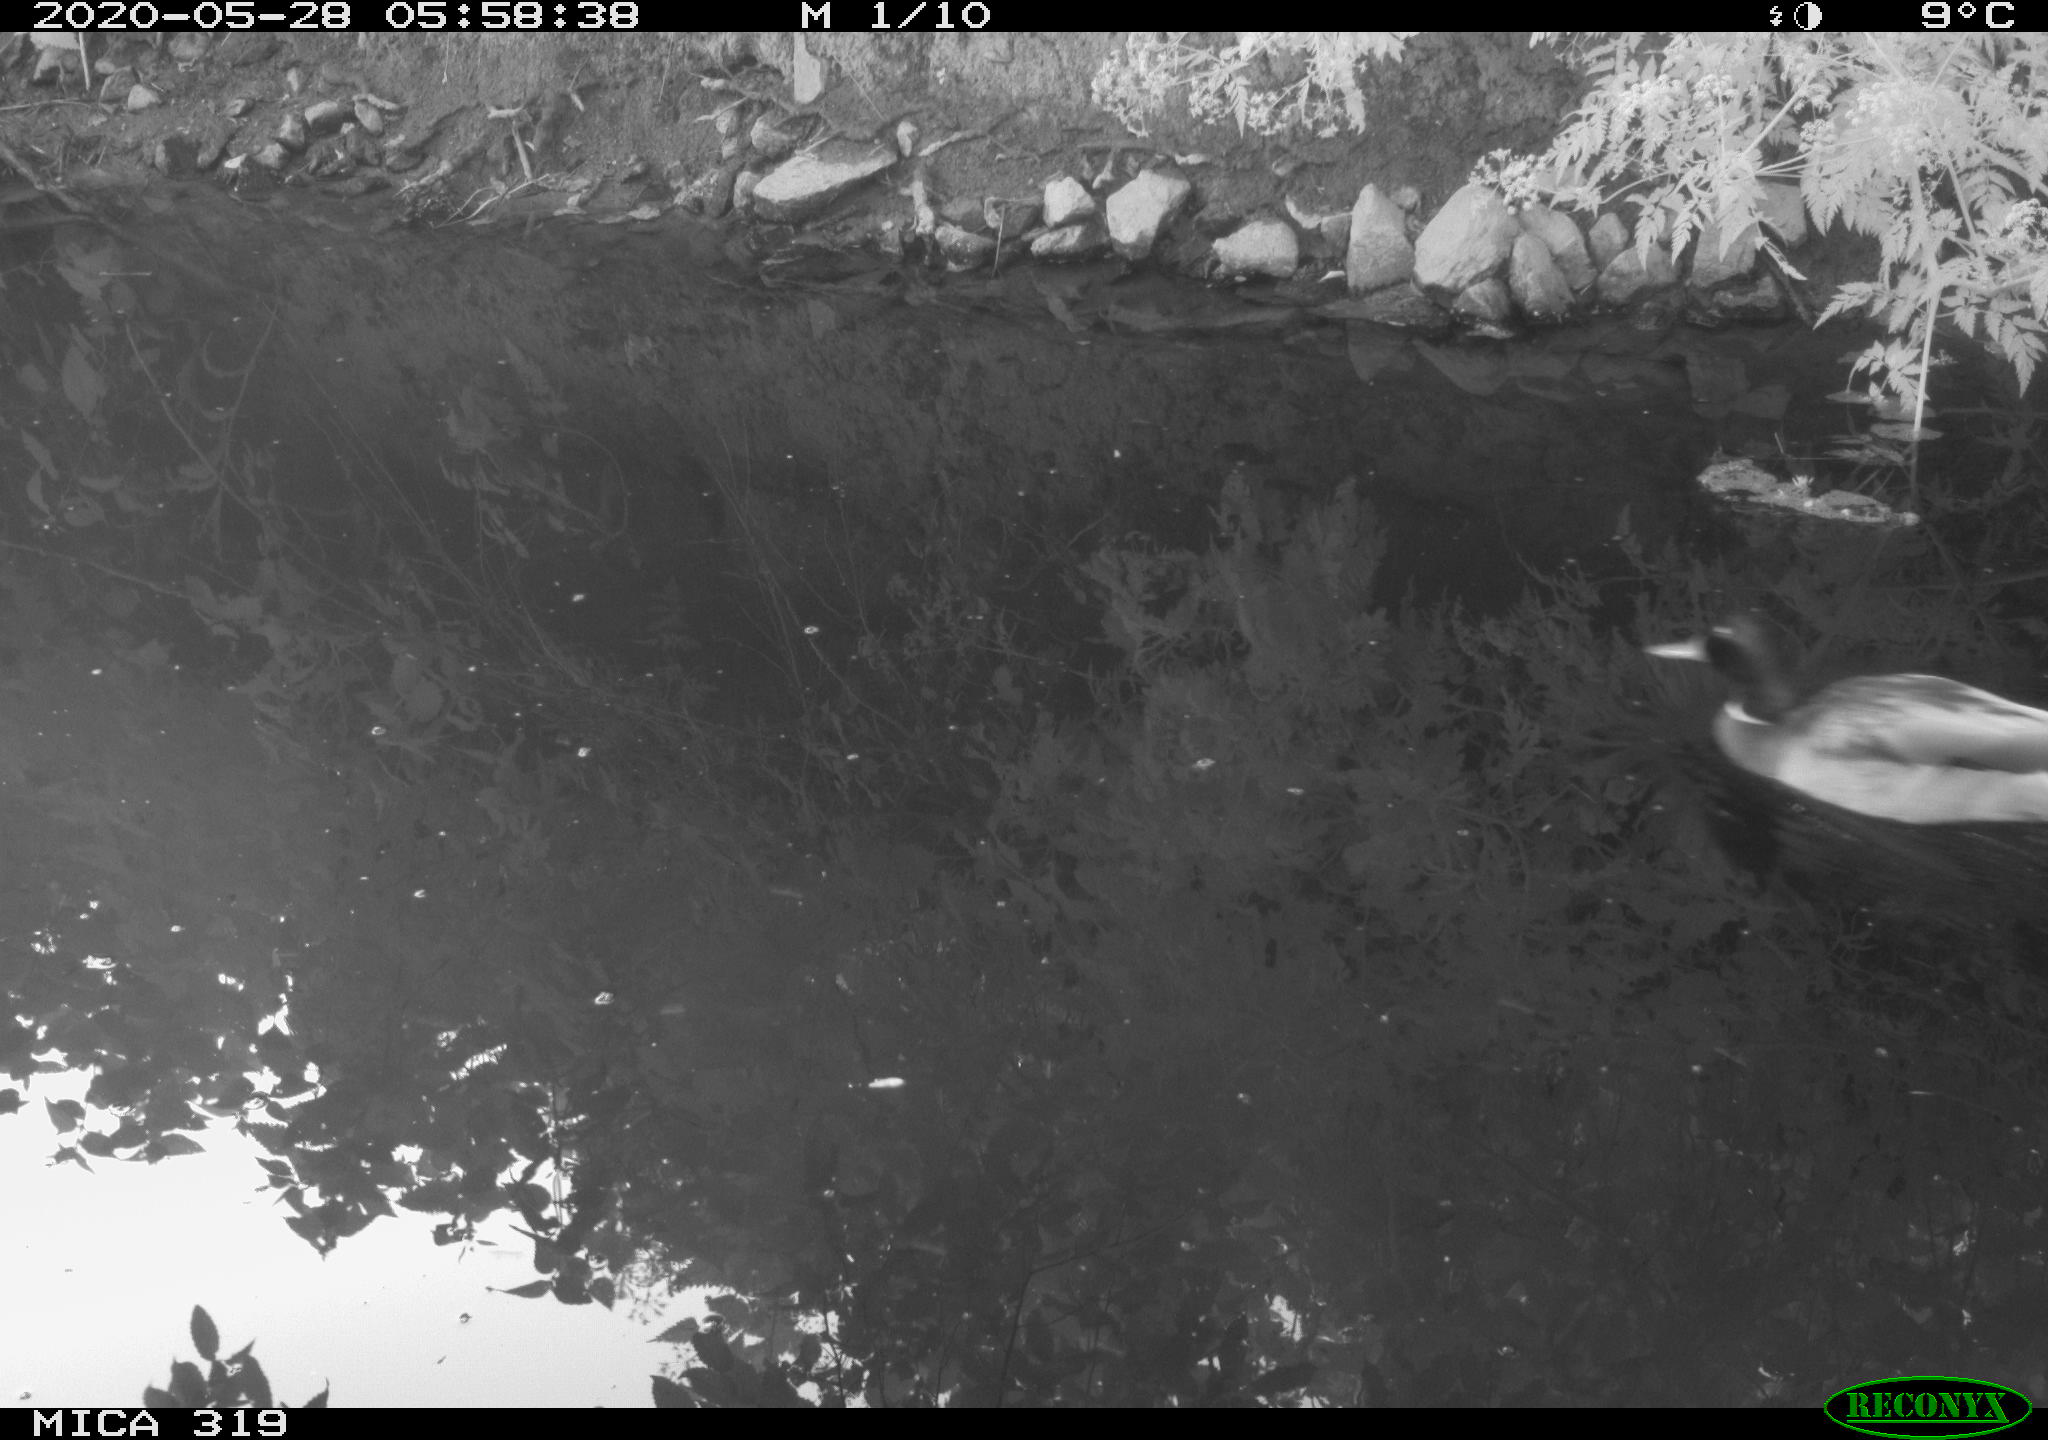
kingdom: Animalia
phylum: Chordata
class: Aves
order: Anseriformes
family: Anatidae
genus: Anas
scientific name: Anas platyrhynchos
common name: Mallard
